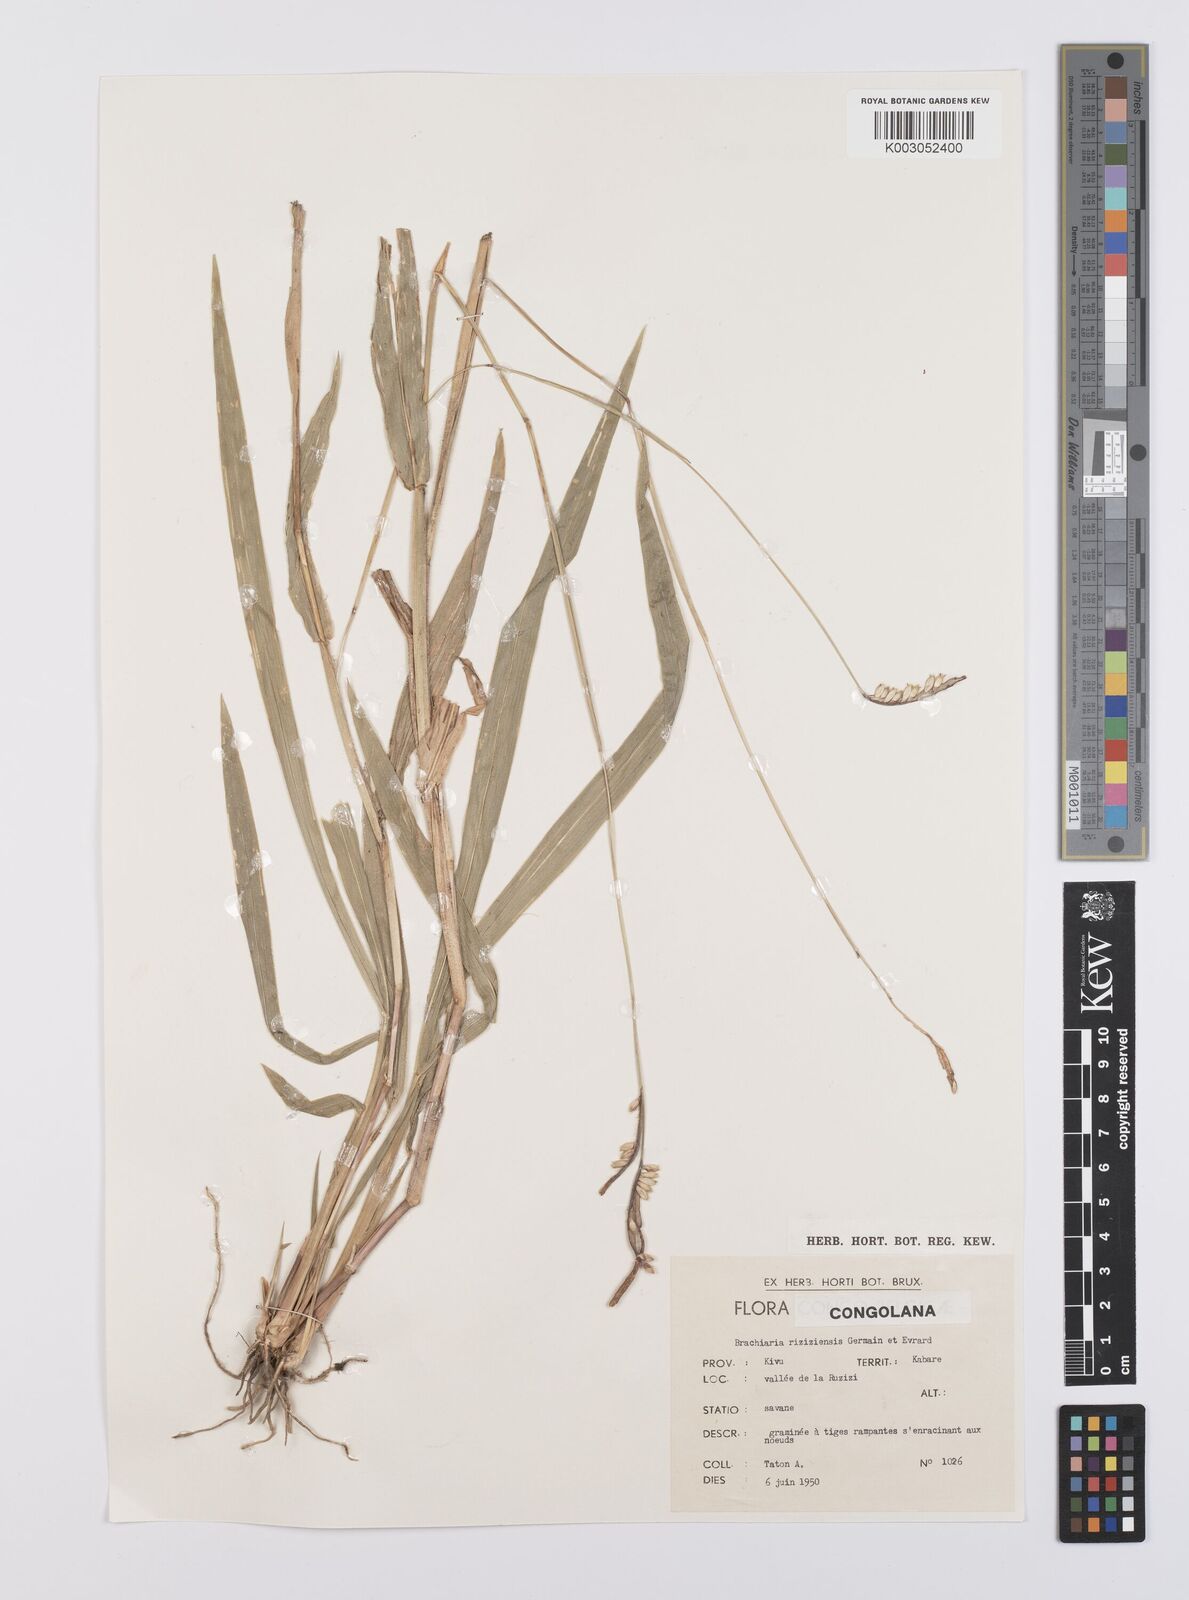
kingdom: Plantae
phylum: Tracheophyta
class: Liliopsida
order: Poales
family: Poaceae
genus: Urochloa
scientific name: Urochloa eminii
